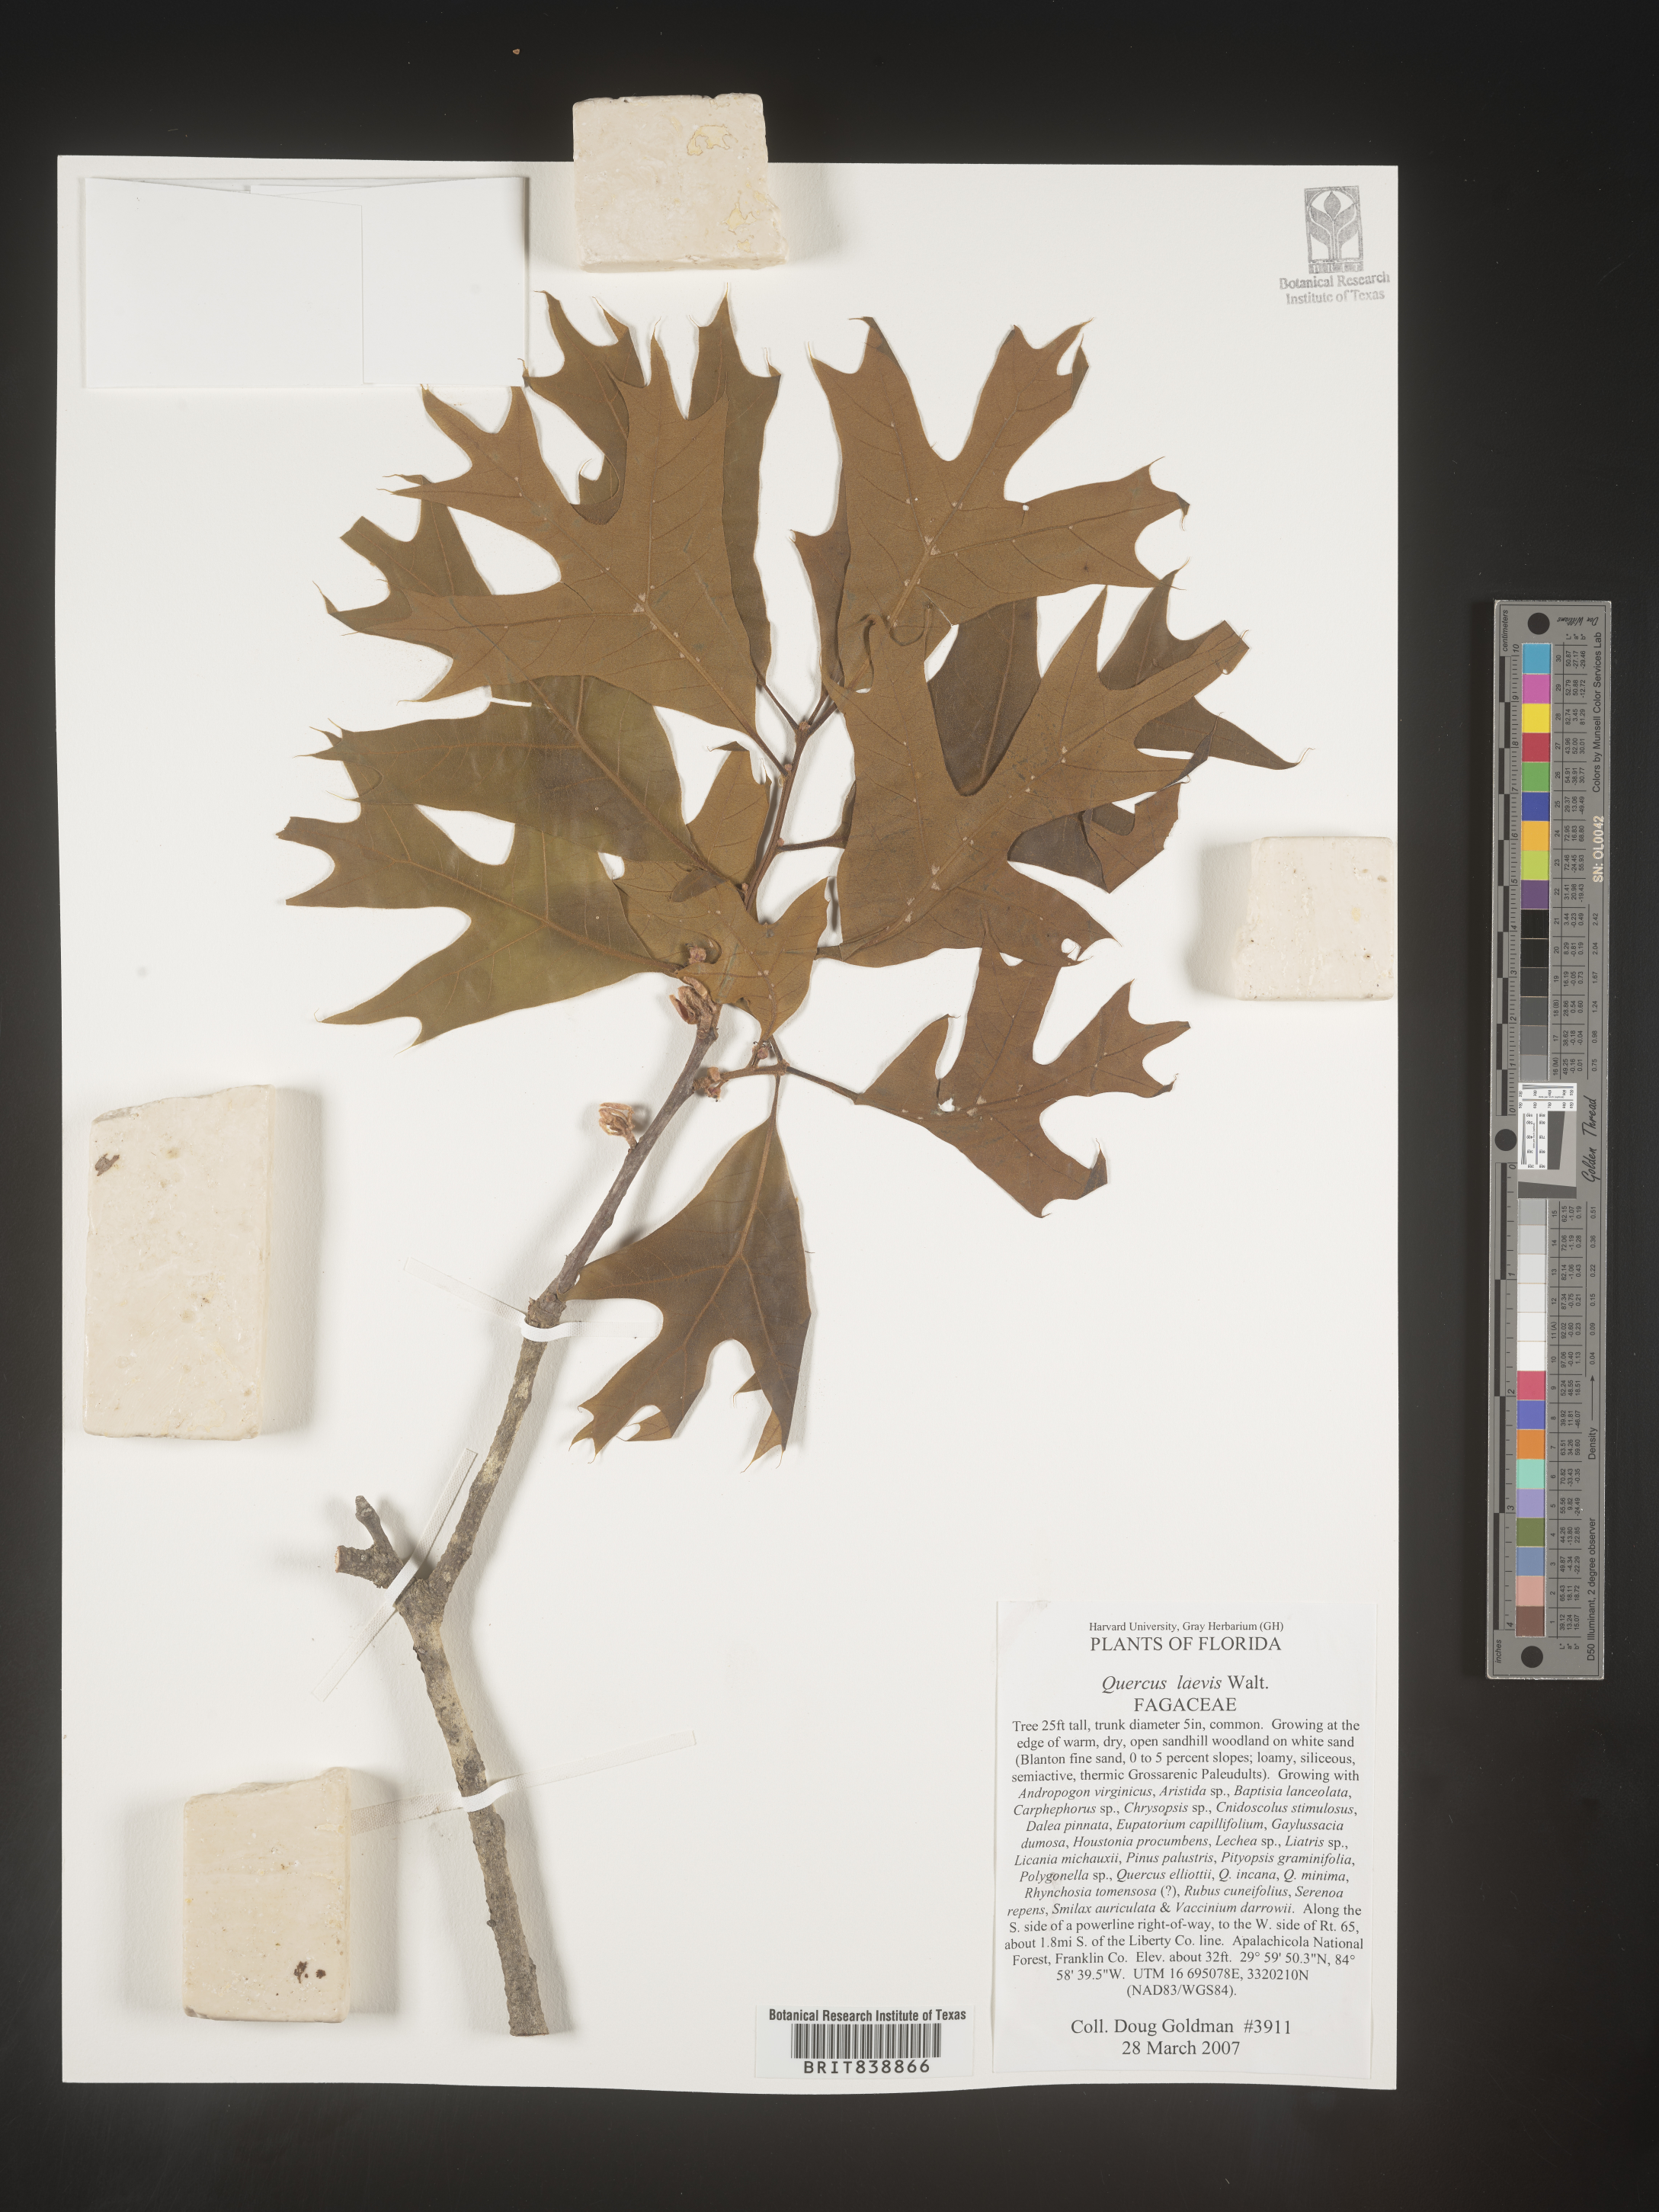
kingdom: Plantae
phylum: Tracheophyta
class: Magnoliopsida
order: Fagales
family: Fagaceae
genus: Quercus
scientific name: Quercus laevis
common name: Turkey oak
